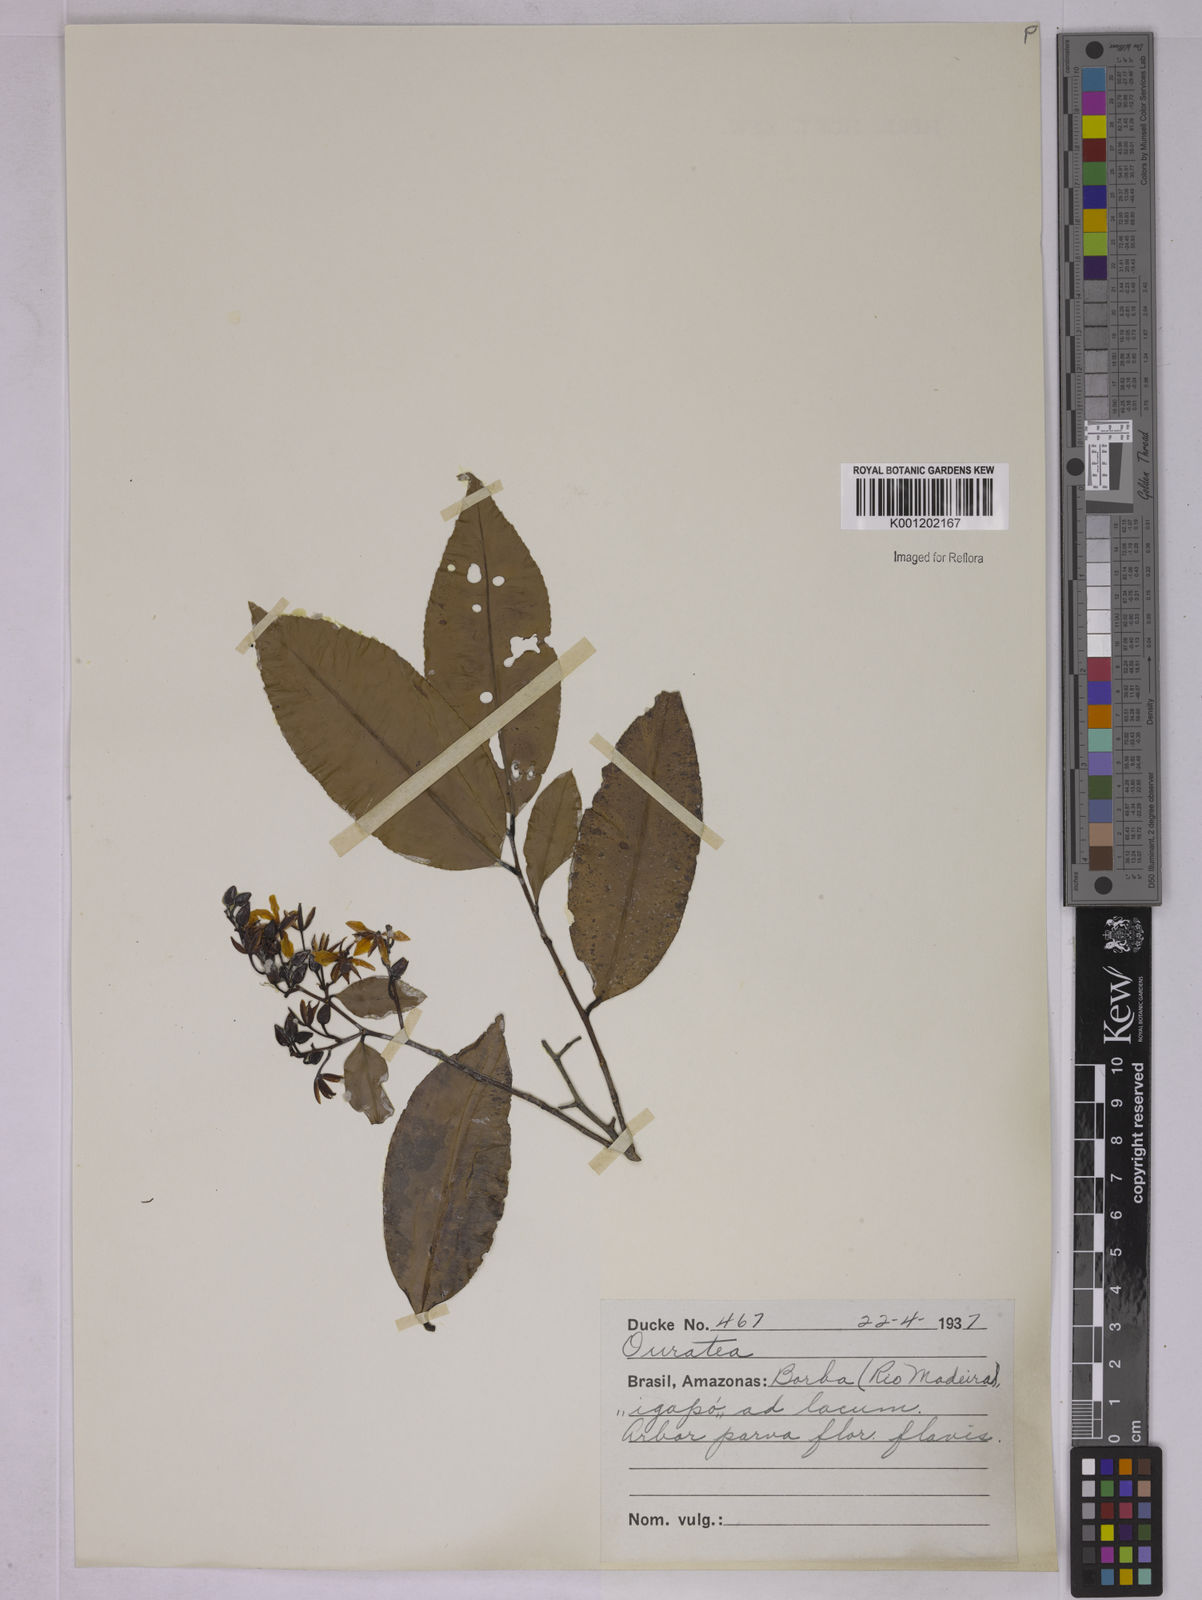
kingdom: Plantae
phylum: Tracheophyta
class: Magnoliopsida
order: Malpighiales
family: Ochnaceae
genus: Ouratea
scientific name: Ouratea
